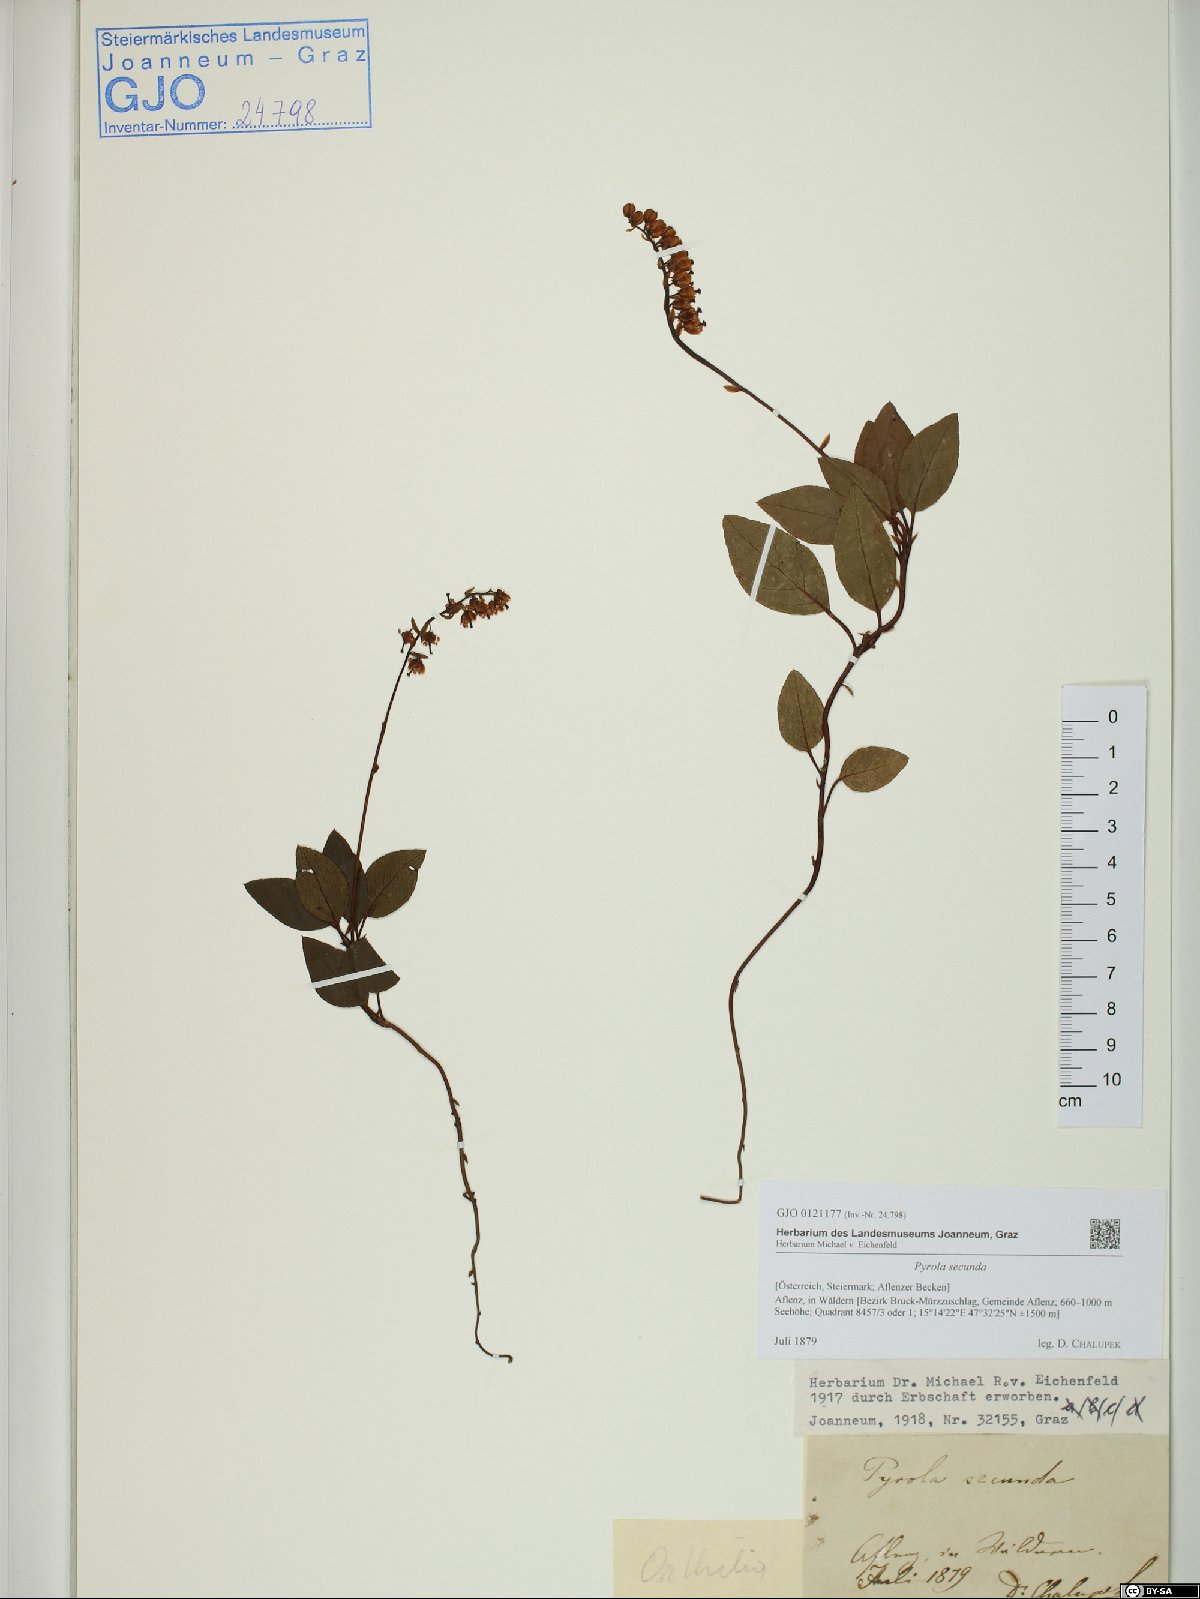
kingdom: Plantae
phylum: Tracheophyta
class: Magnoliopsida
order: Ericales
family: Ericaceae
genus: Orthilia
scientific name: Orthilia secunda
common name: One-sided orthilia
